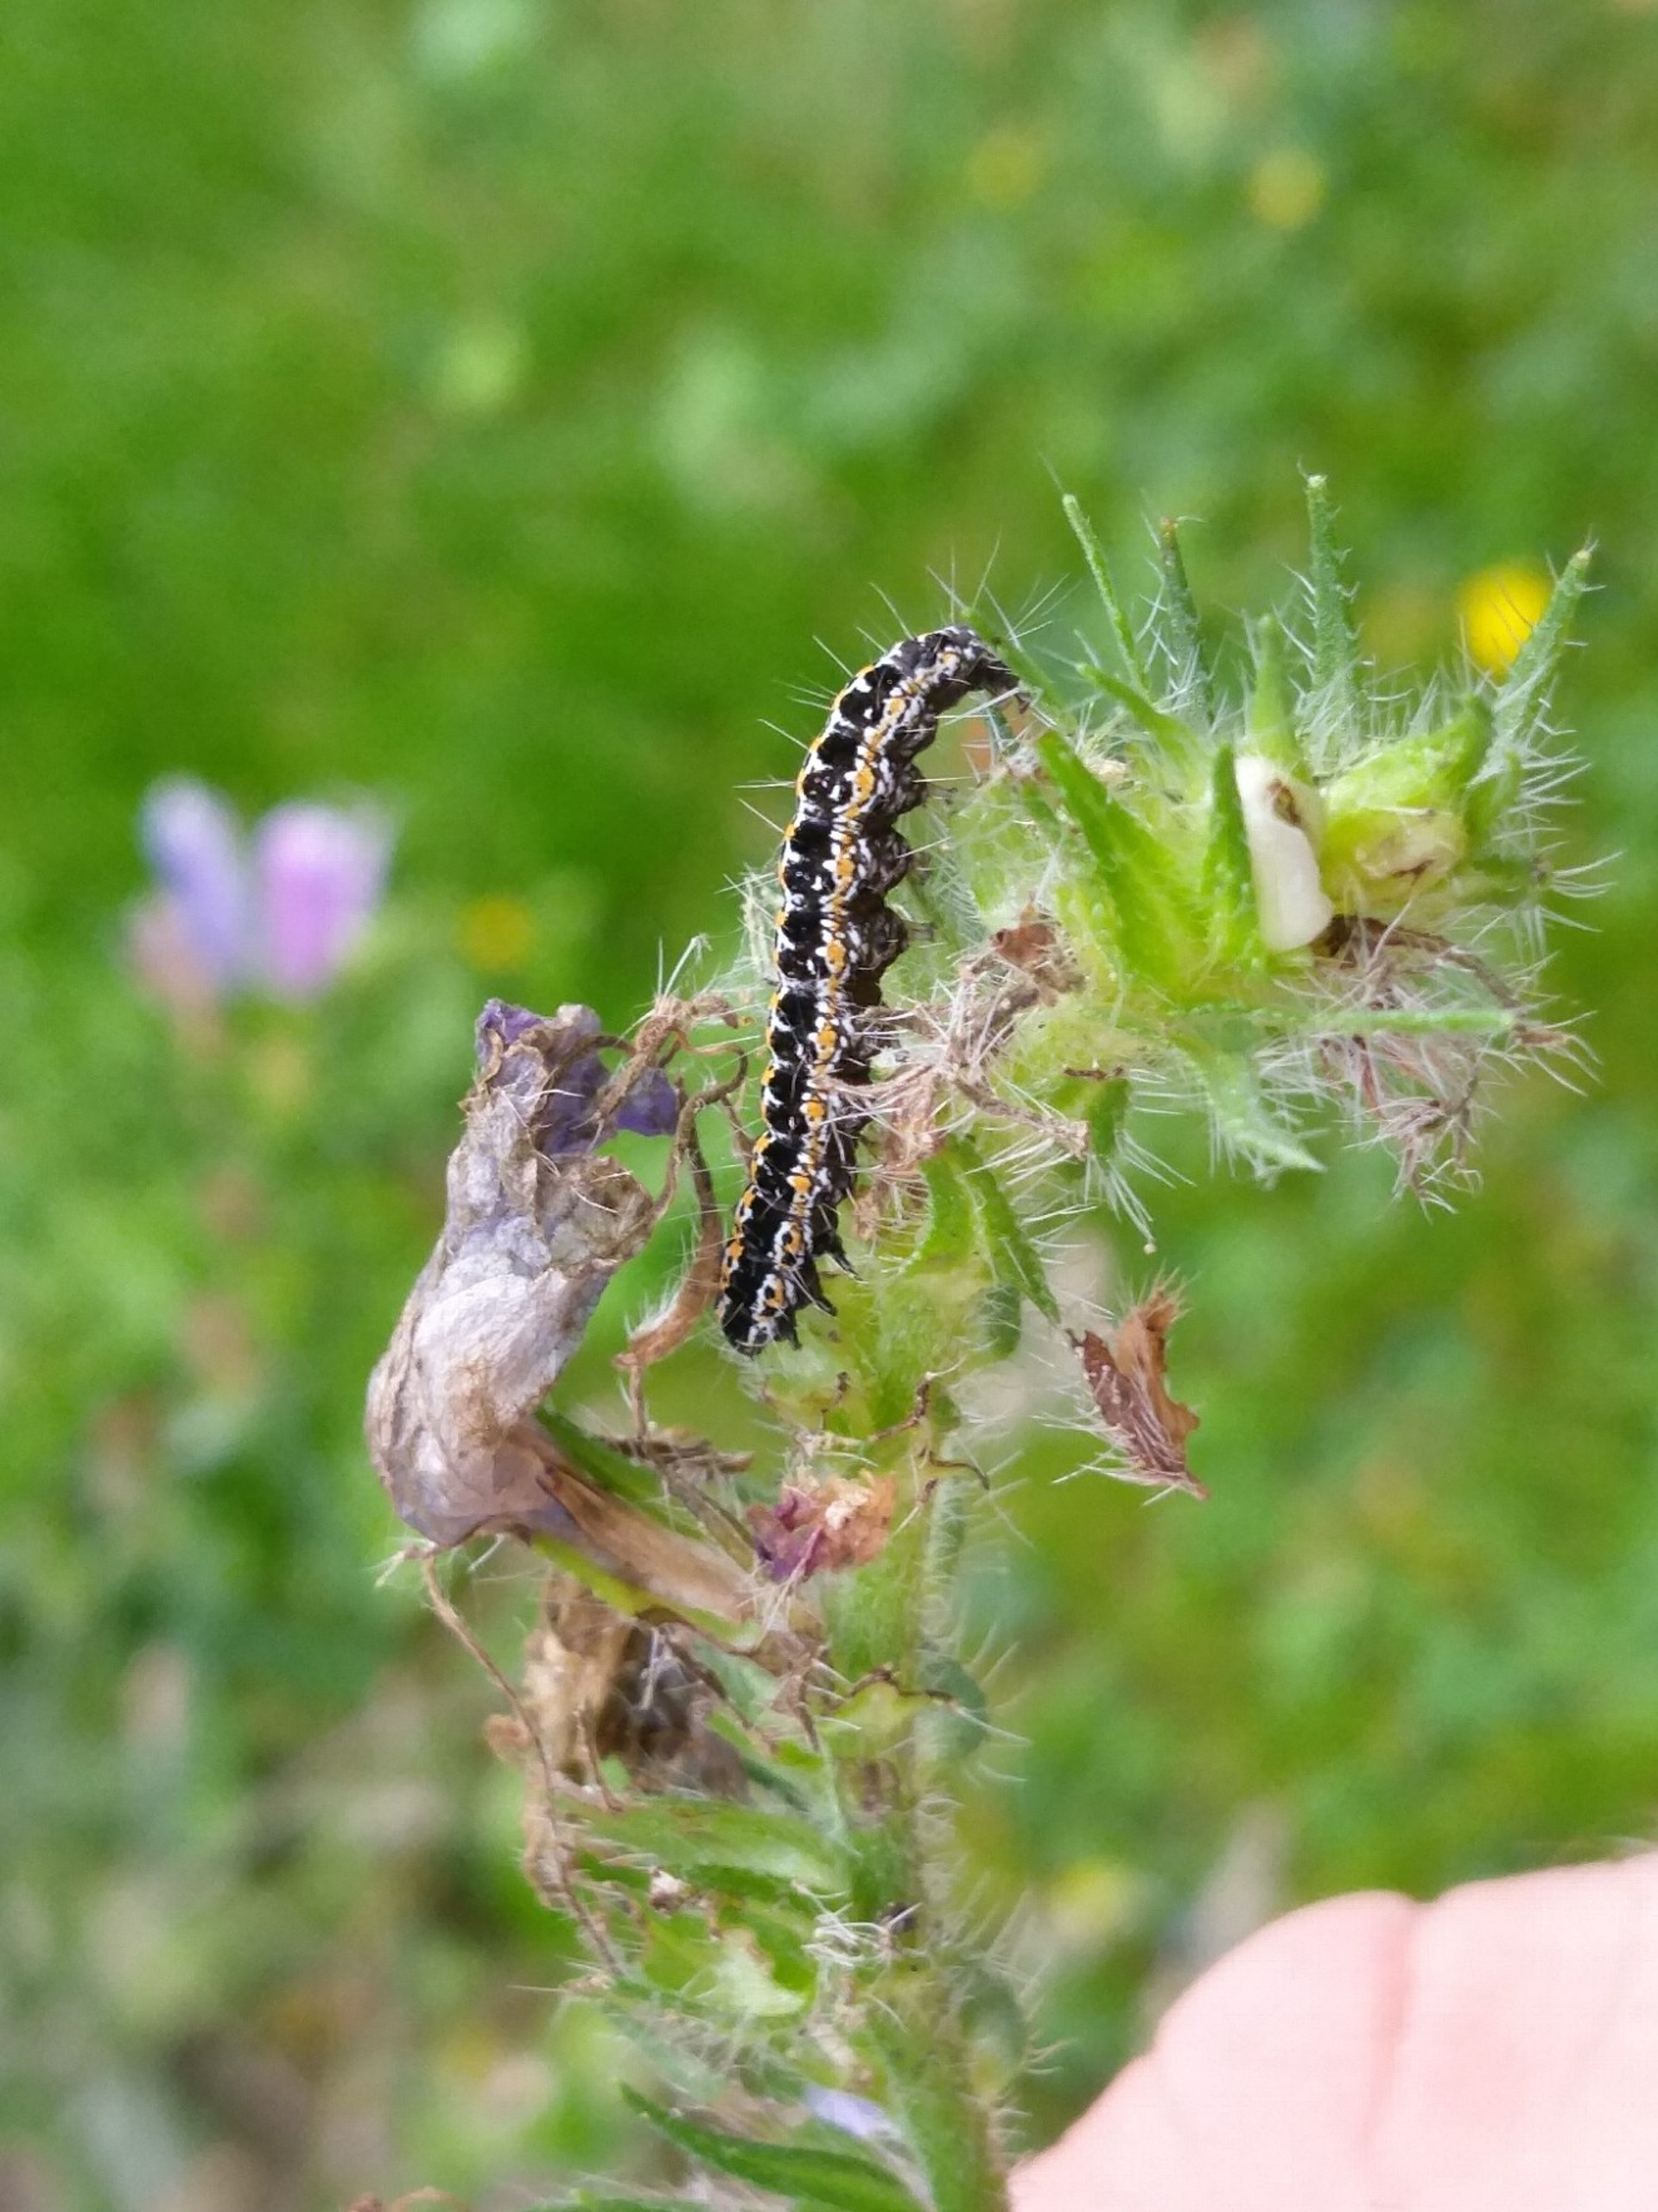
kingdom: Animalia
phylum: Arthropoda
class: Insecta
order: Lepidoptera
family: Ethmiidae
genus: Ethmia
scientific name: Ethmia bipunctella
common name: Slangehovedmøl
